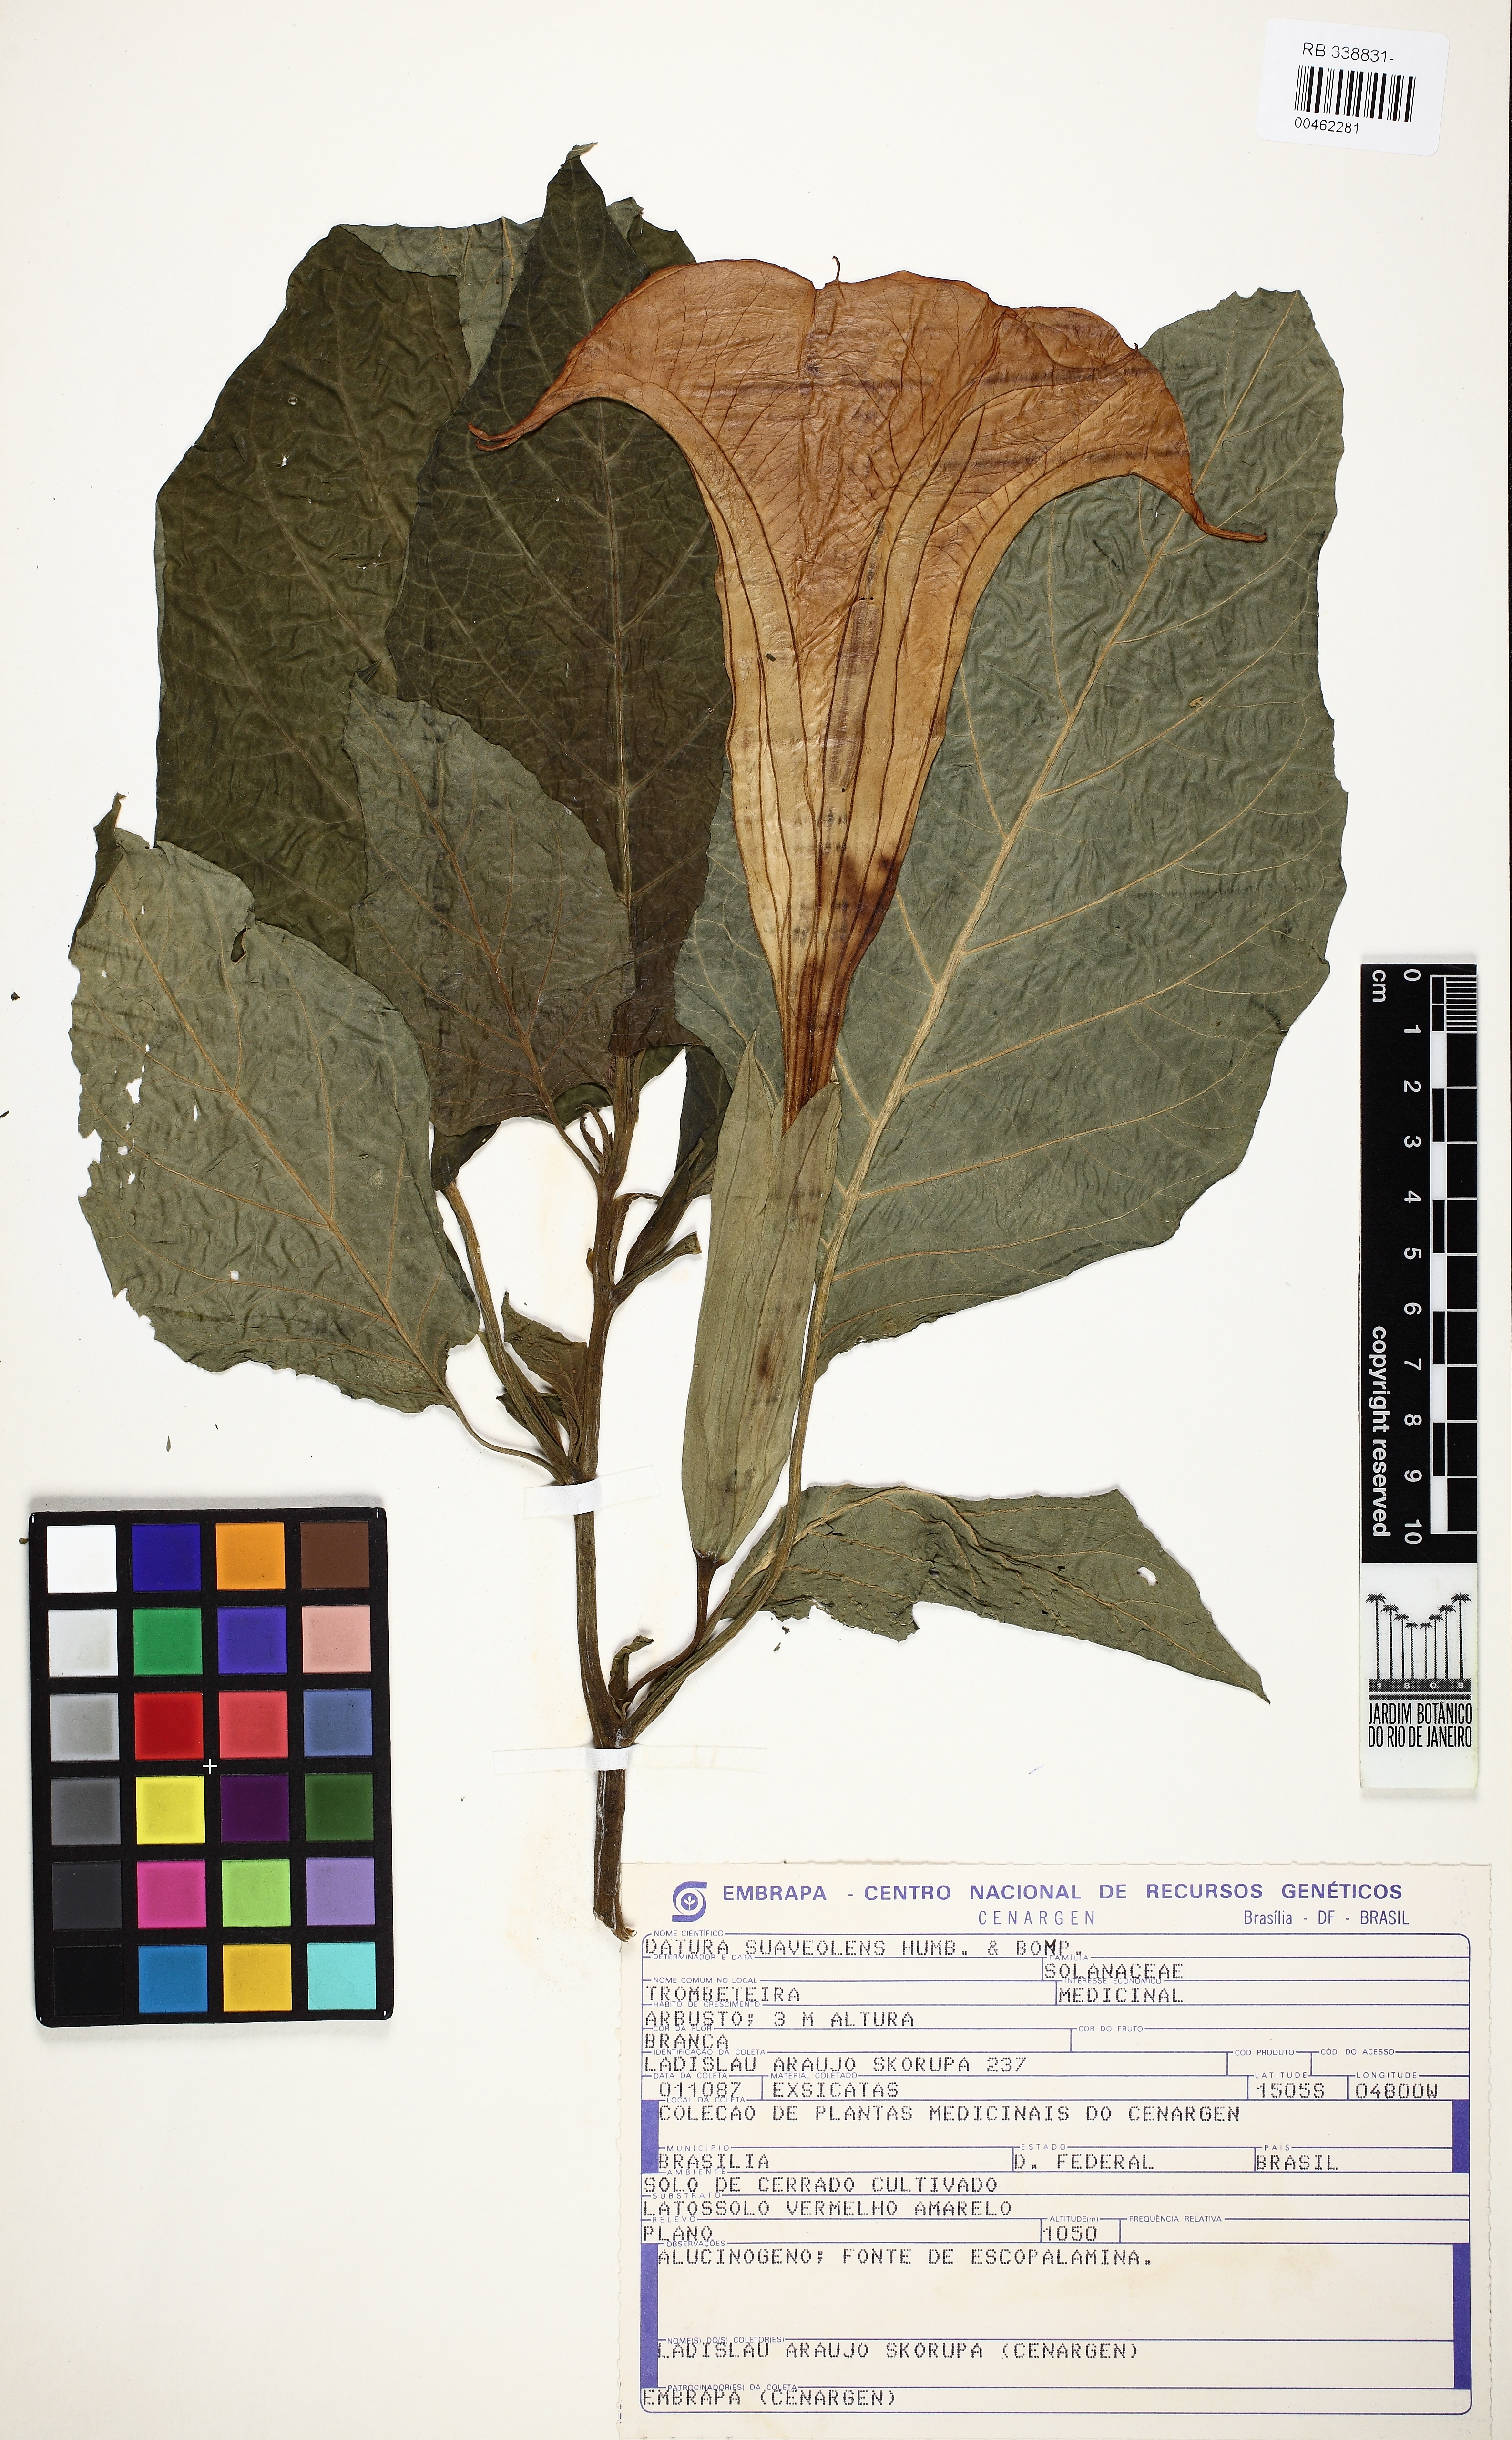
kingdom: Plantae
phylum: Tracheophyta
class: Magnoliopsida
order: Solanales
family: Solanaceae
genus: Brugmansia
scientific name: Brugmansia suaveolens
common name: Angel's tears
